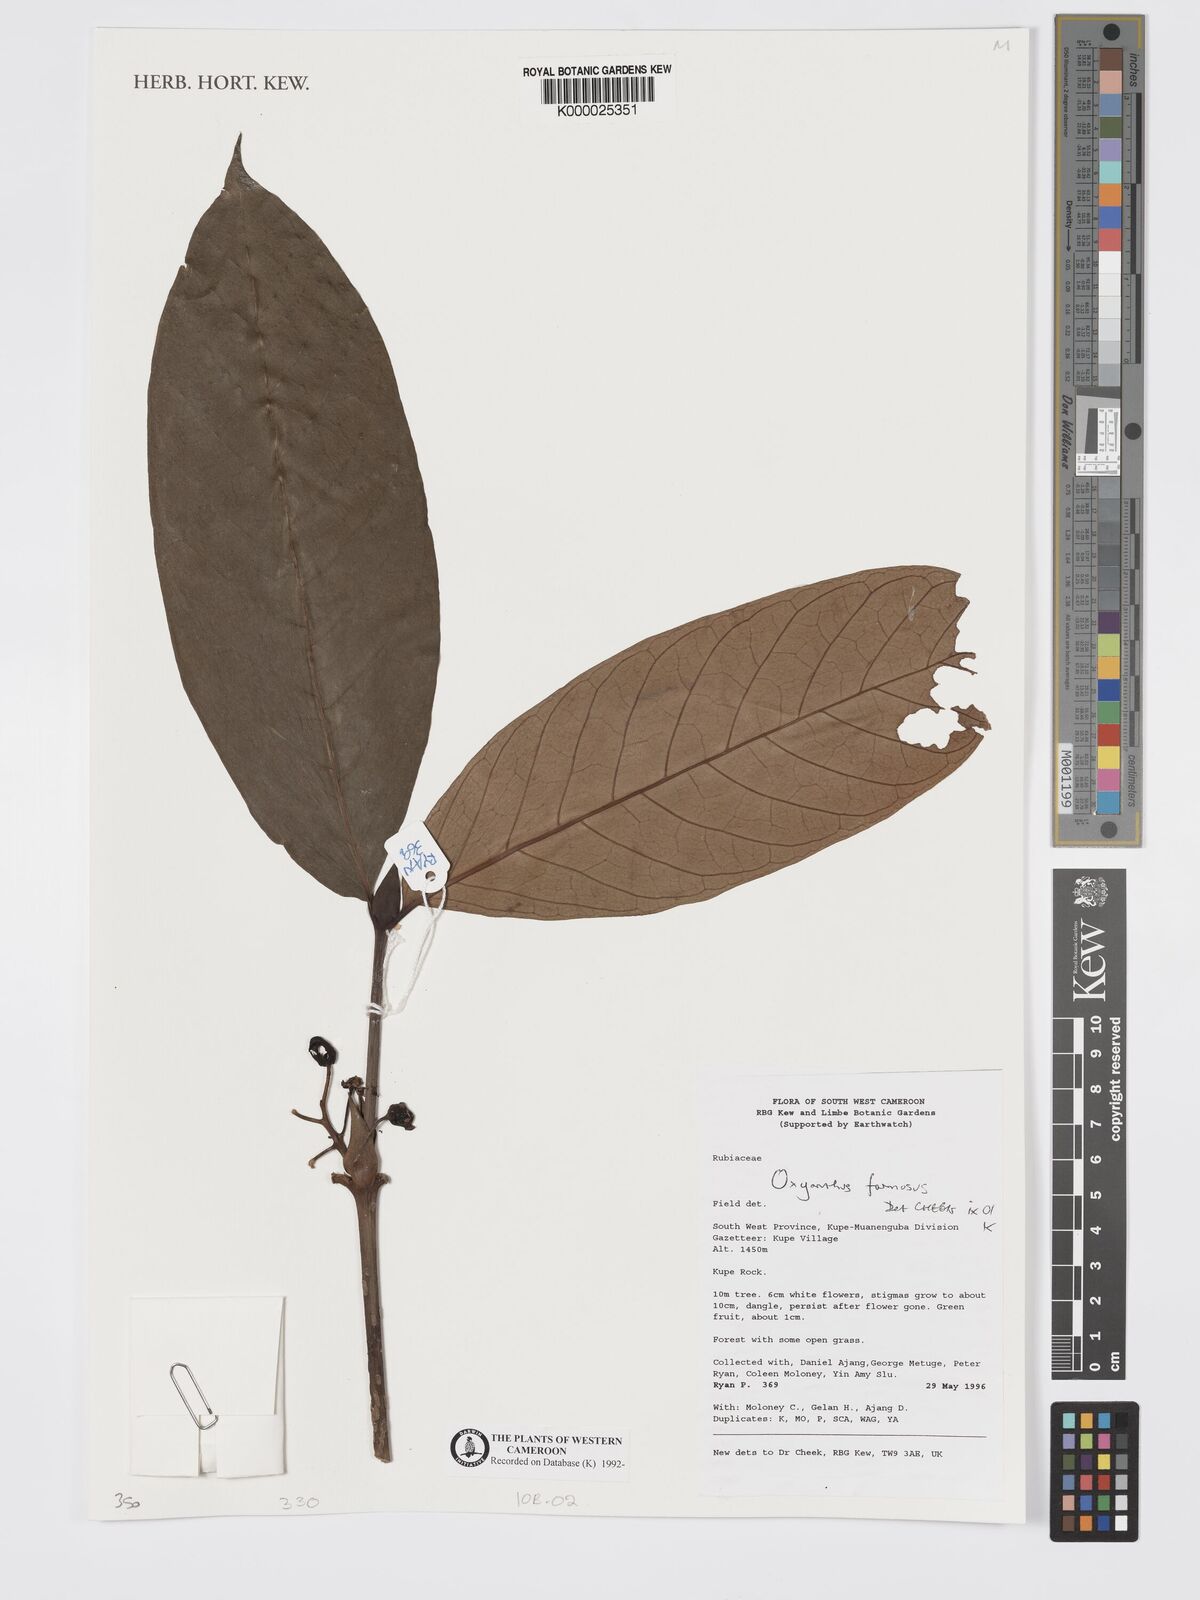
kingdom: Plantae
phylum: Tracheophyta
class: Magnoliopsida
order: Gentianales
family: Rubiaceae
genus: Oxyanthus
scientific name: Oxyanthus
